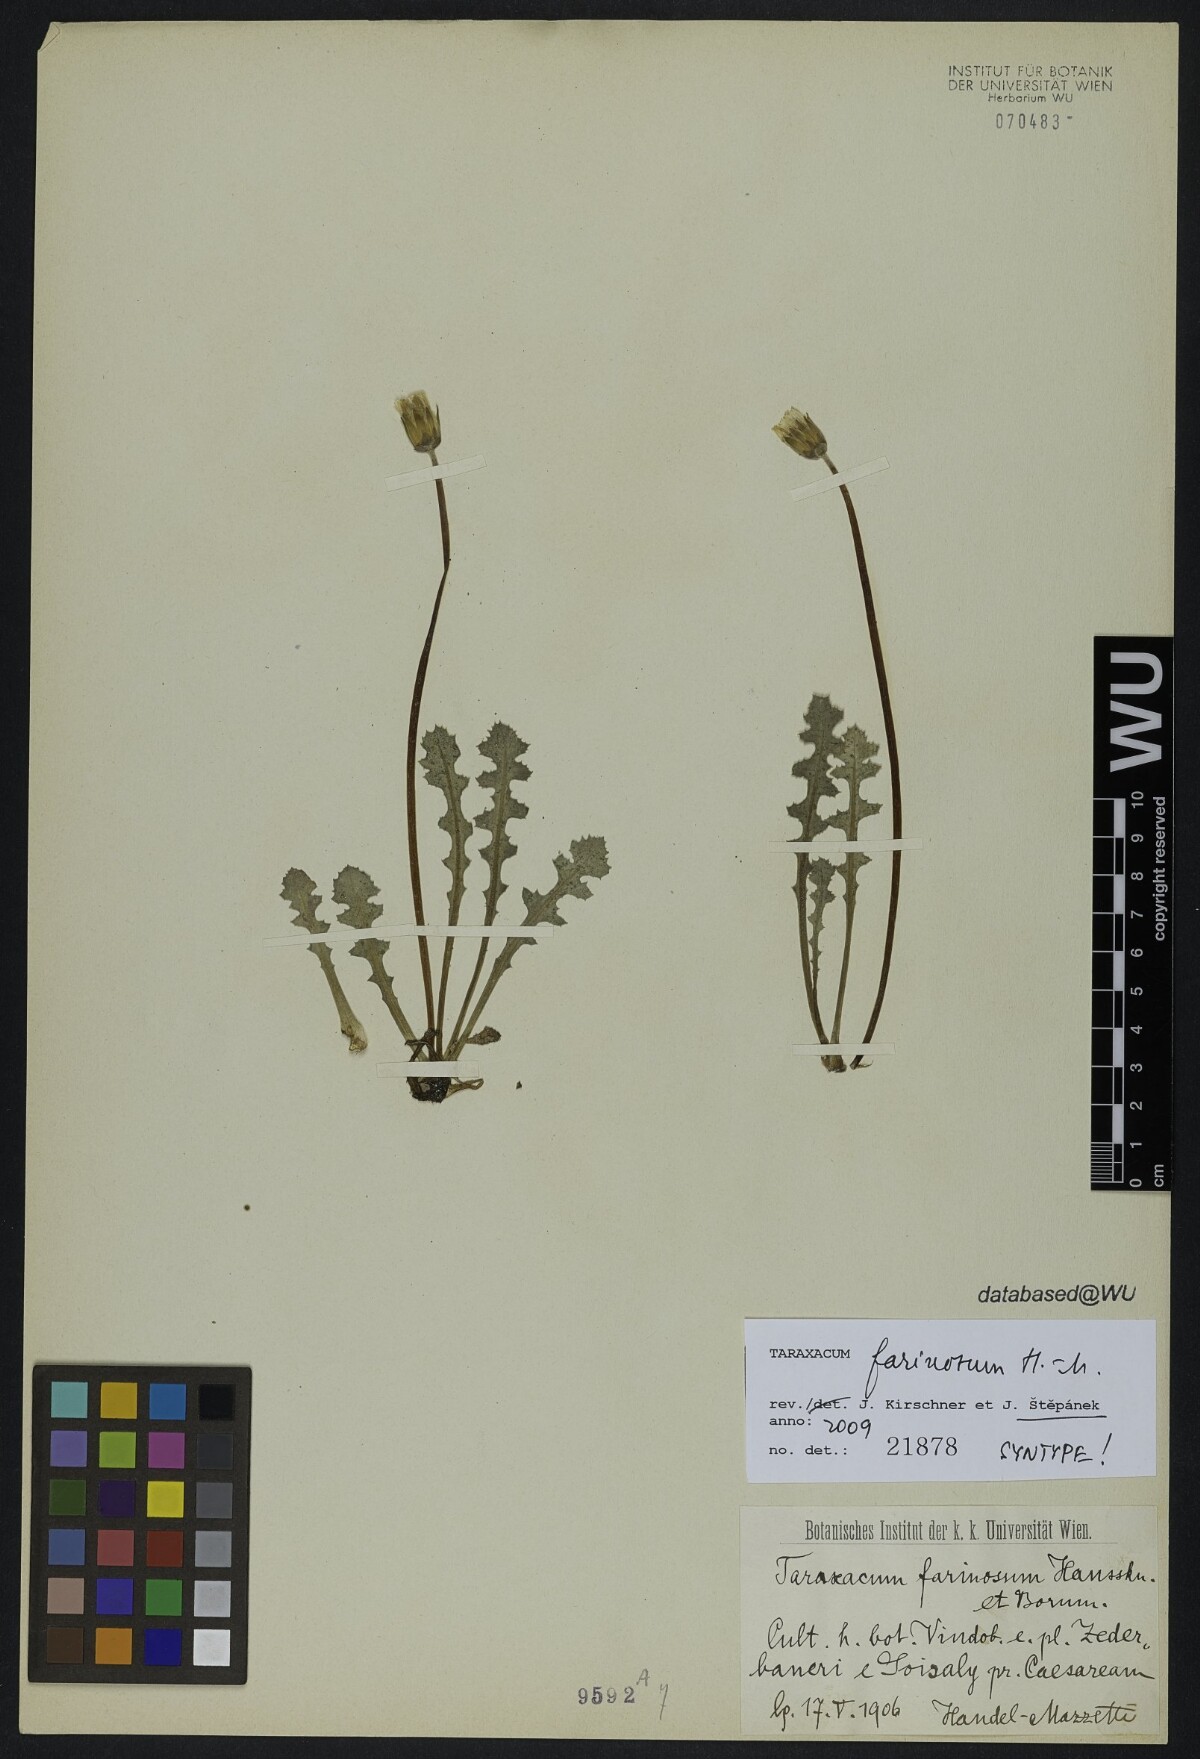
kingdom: Plantae
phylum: Tracheophyta
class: Magnoliopsida
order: Asterales
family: Asteraceae
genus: Taraxacum
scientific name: Taraxacum farinosum
